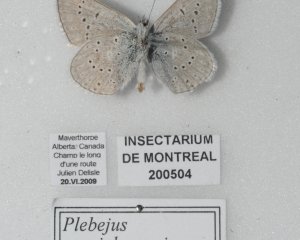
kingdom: Animalia
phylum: Arthropoda
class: Insecta
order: Lepidoptera
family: Lycaenidae
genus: Plebejus
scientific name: Plebejus saepiolus
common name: Greenish Blue
